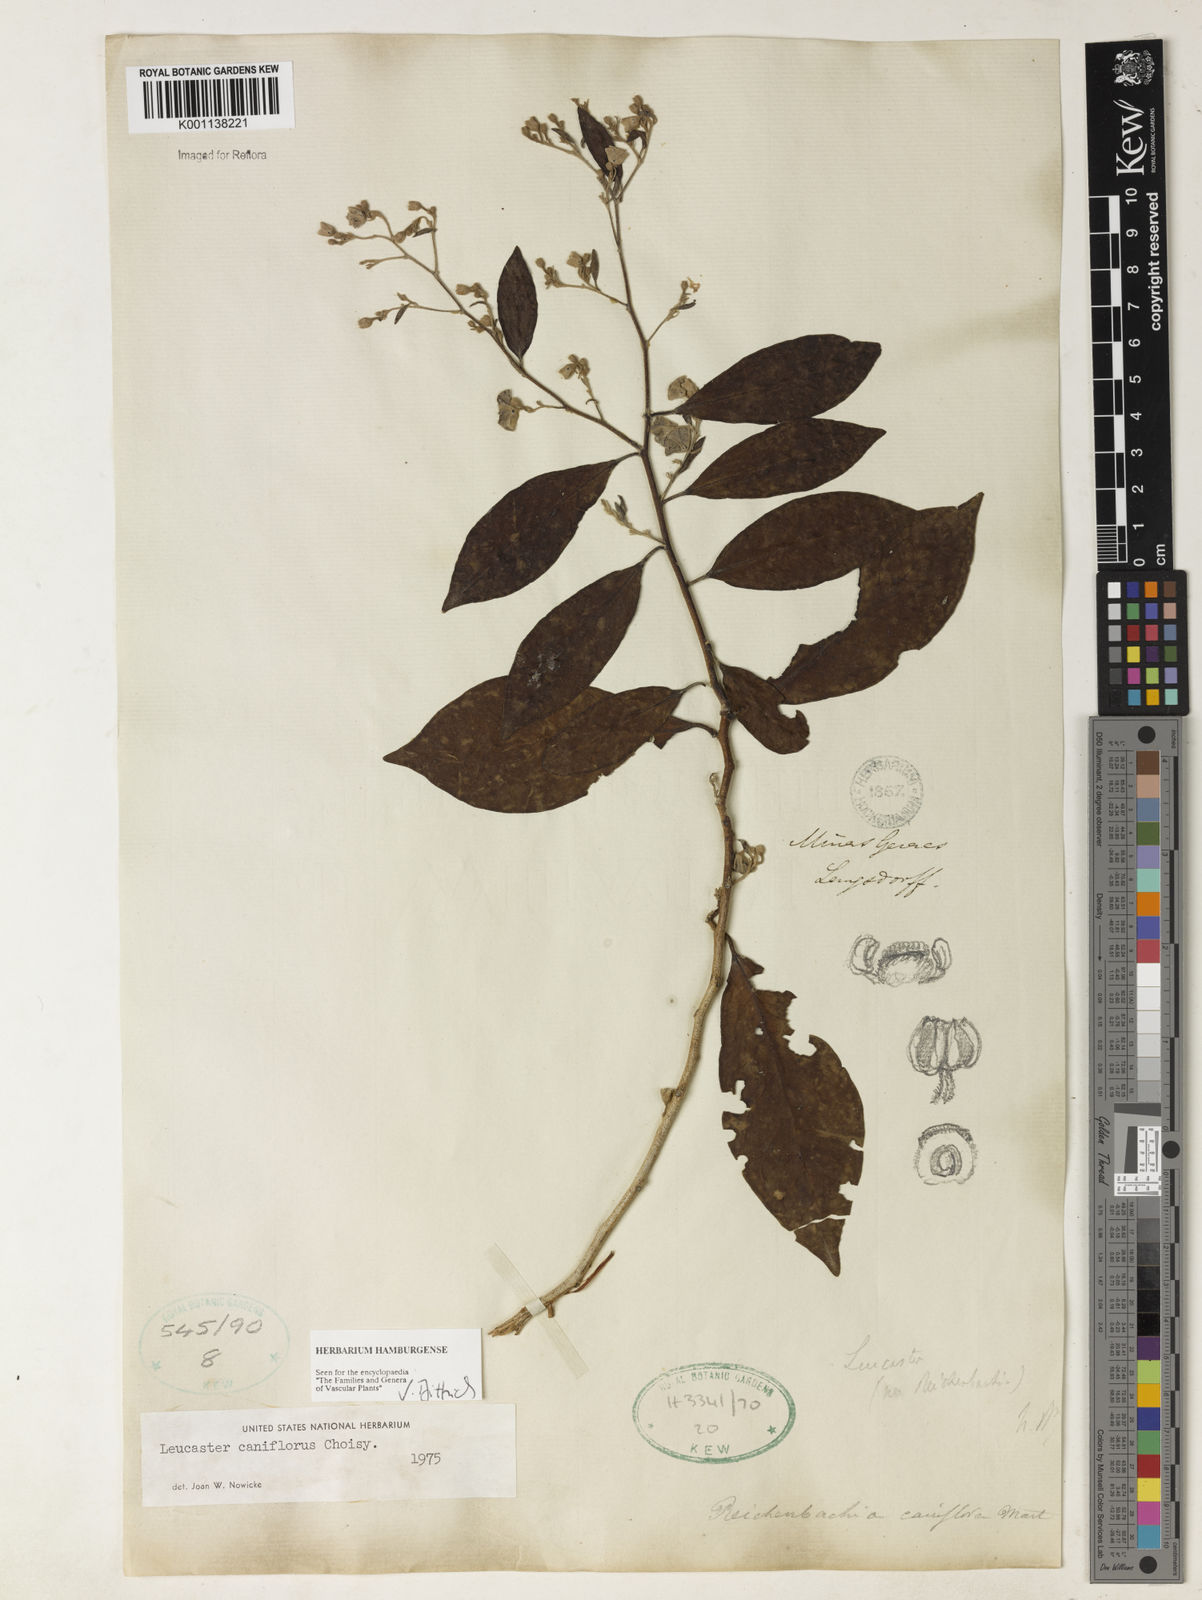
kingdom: Plantae
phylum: Tracheophyta
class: Magnoliopsida
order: Caryophyllales
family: Nyctaginaceae
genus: Leucaster
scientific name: Leucaster caniflorus
